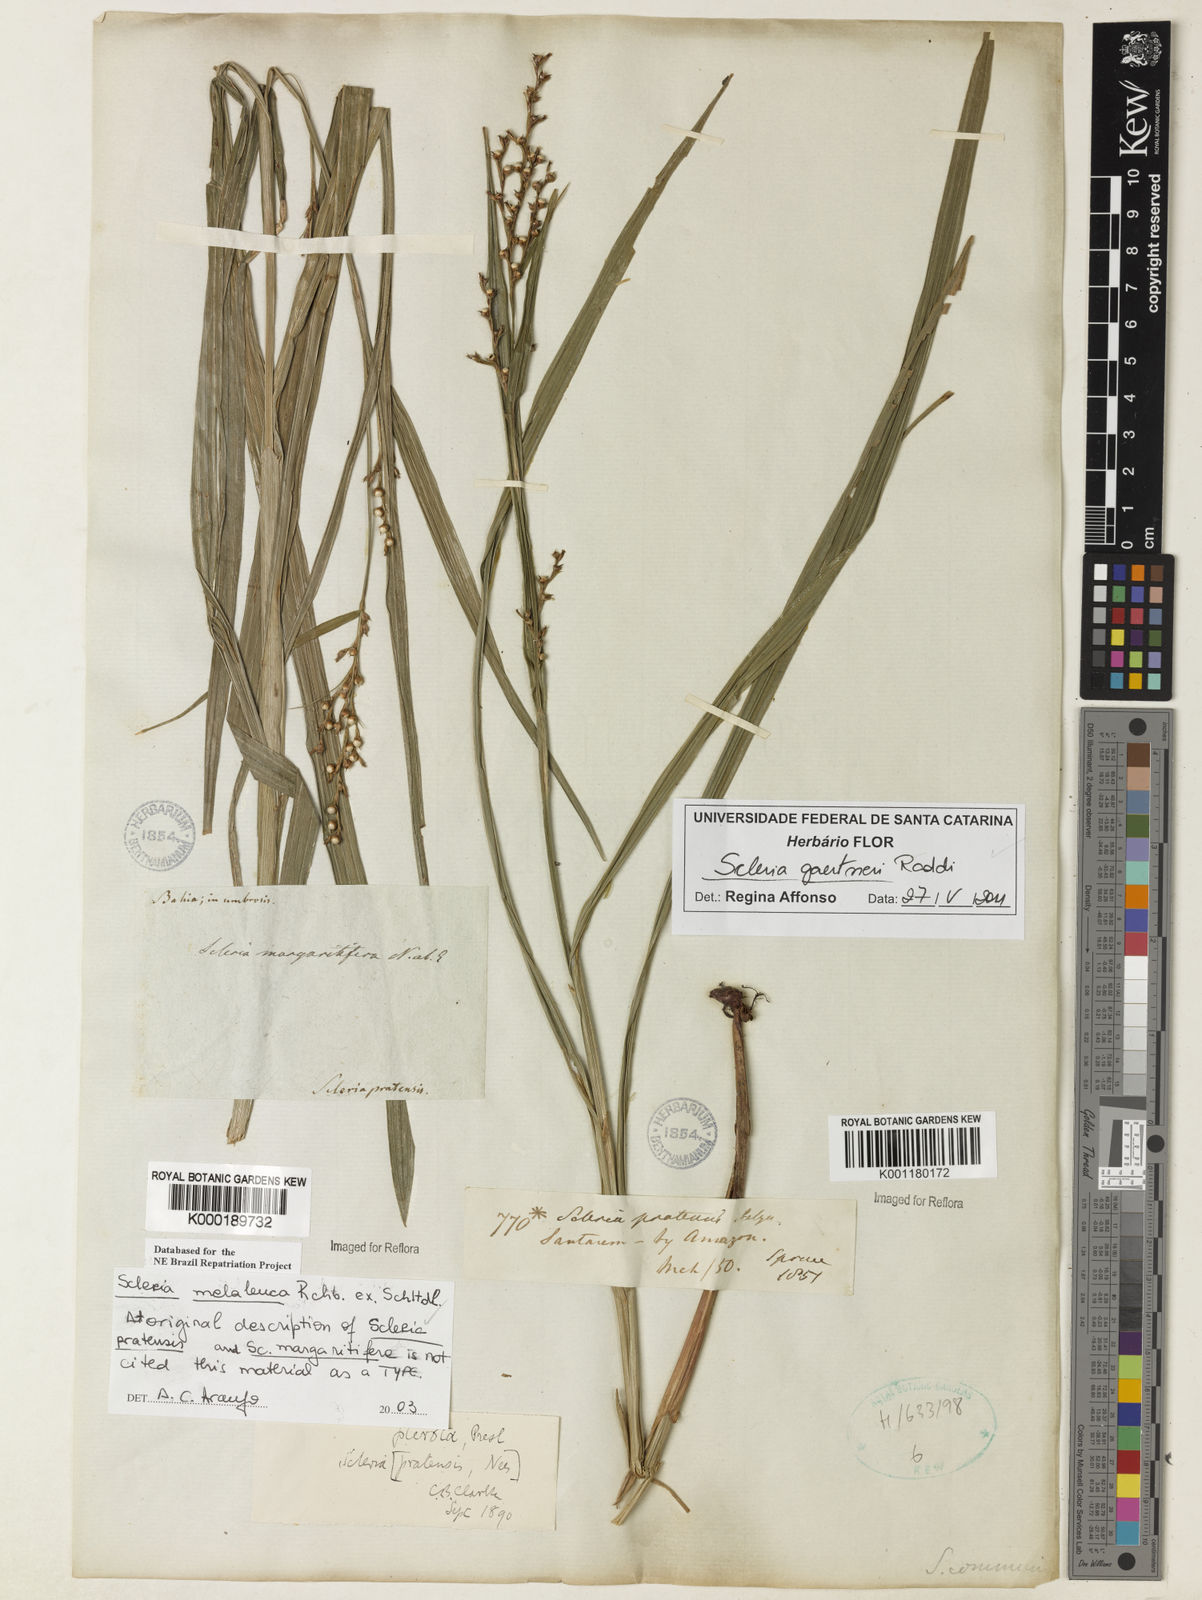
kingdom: Plantae
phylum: Tracheophyta
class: Liliopsida
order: Poales
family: Cyperaceae
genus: Scleria
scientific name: Scleria gaertneri
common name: Cortadera blanca
